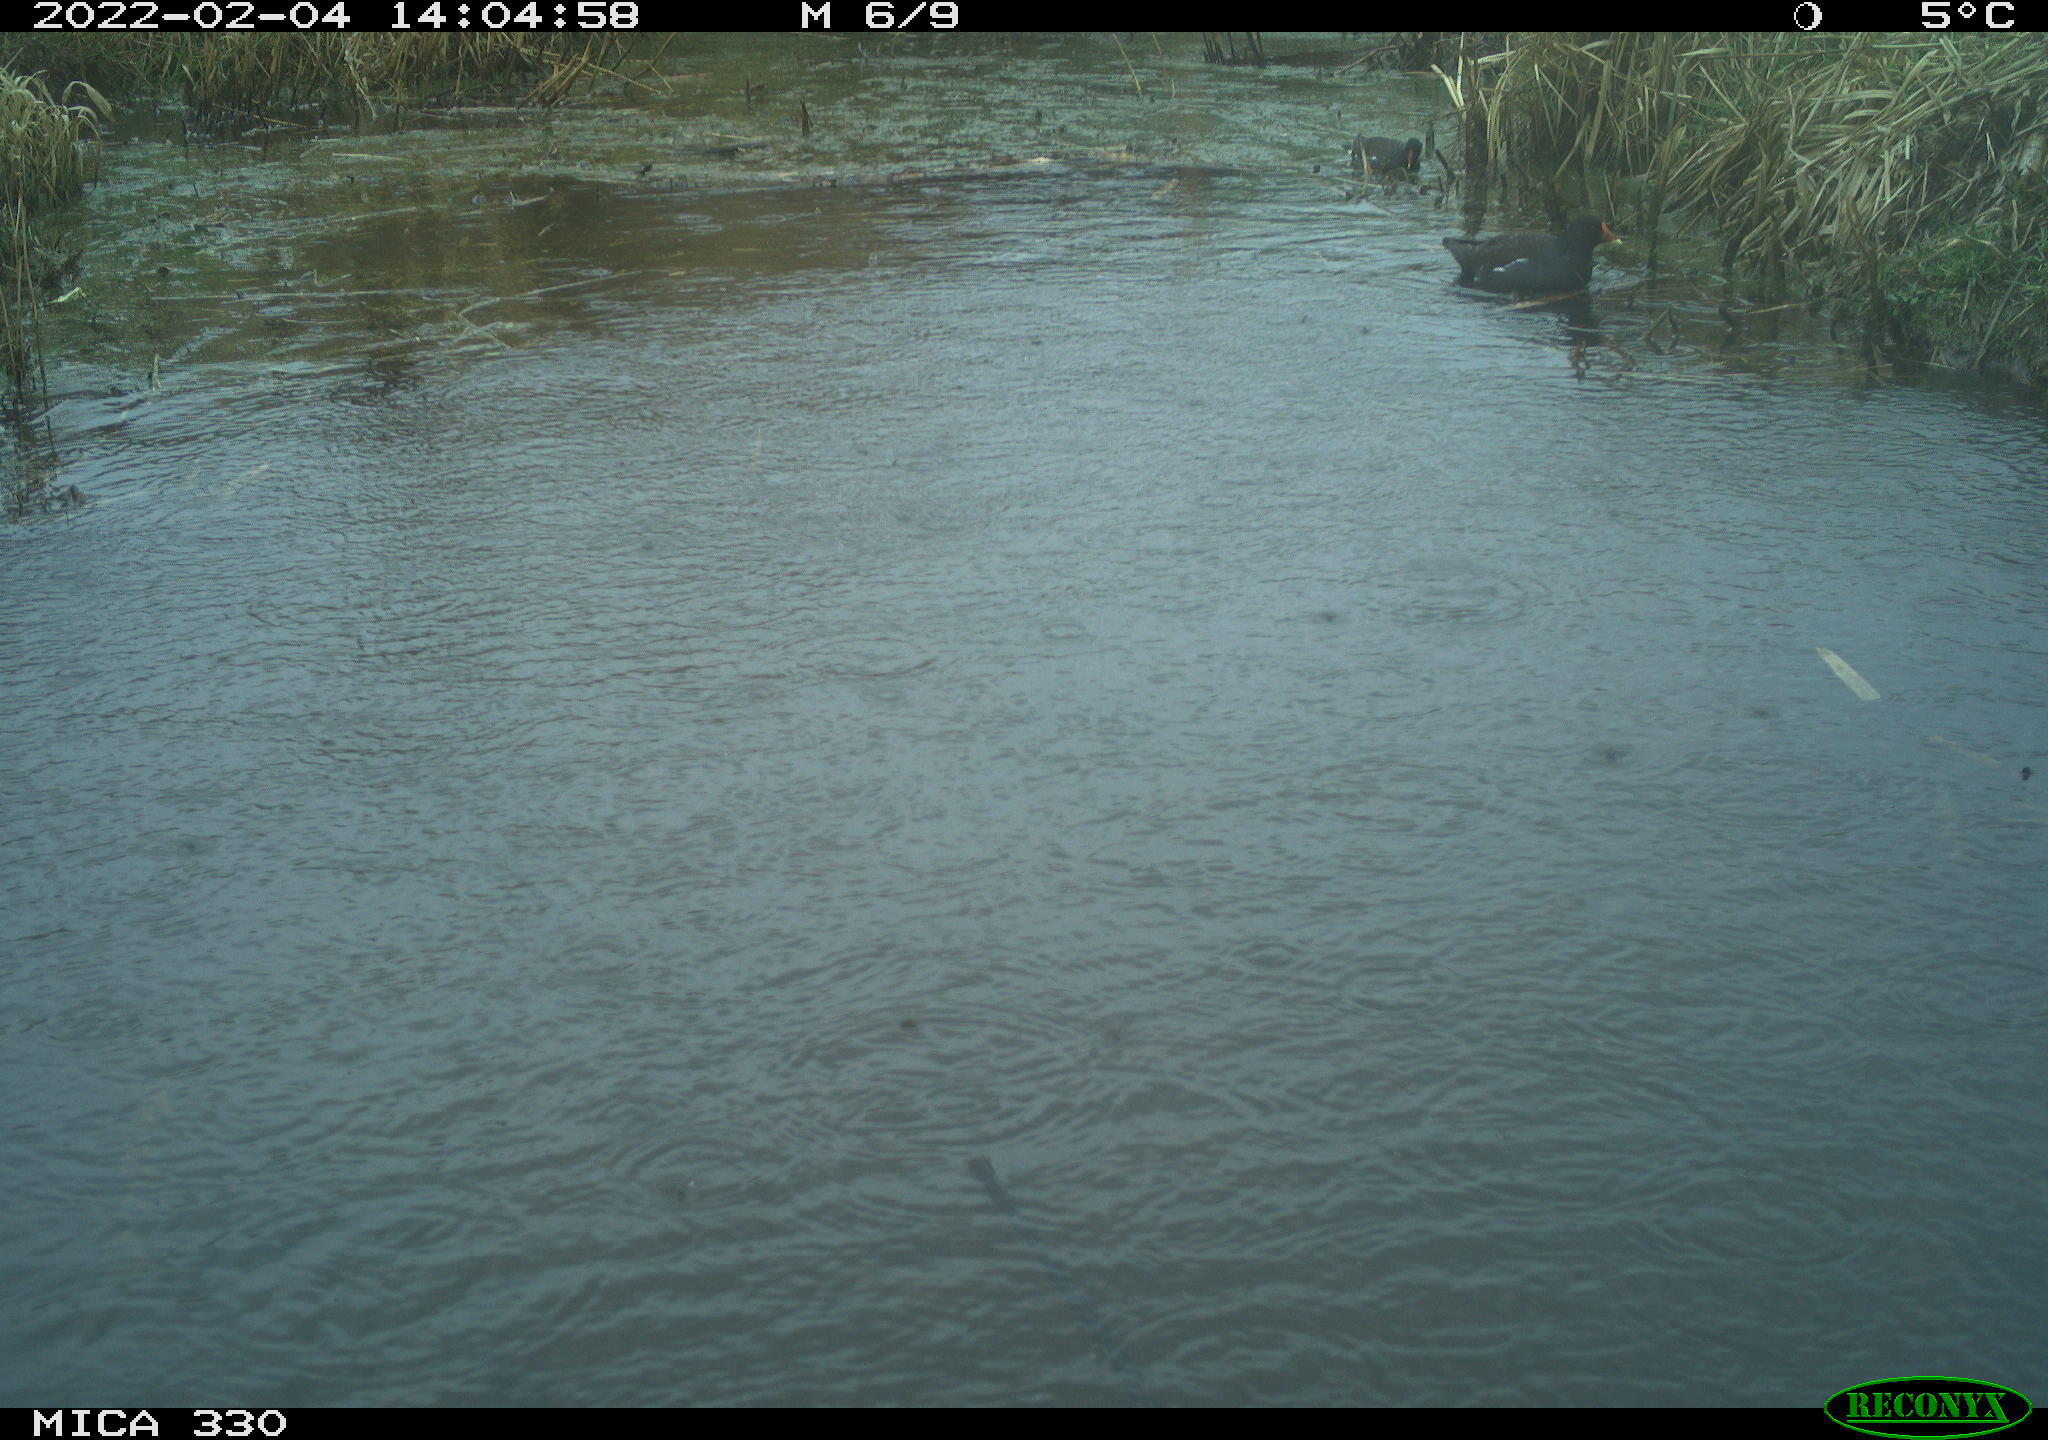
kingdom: Animalia
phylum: Chordata
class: Aves
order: Gruiformes
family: Rallidae
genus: Gallinula
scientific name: Gallinula chloropus
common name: Common moorhen
